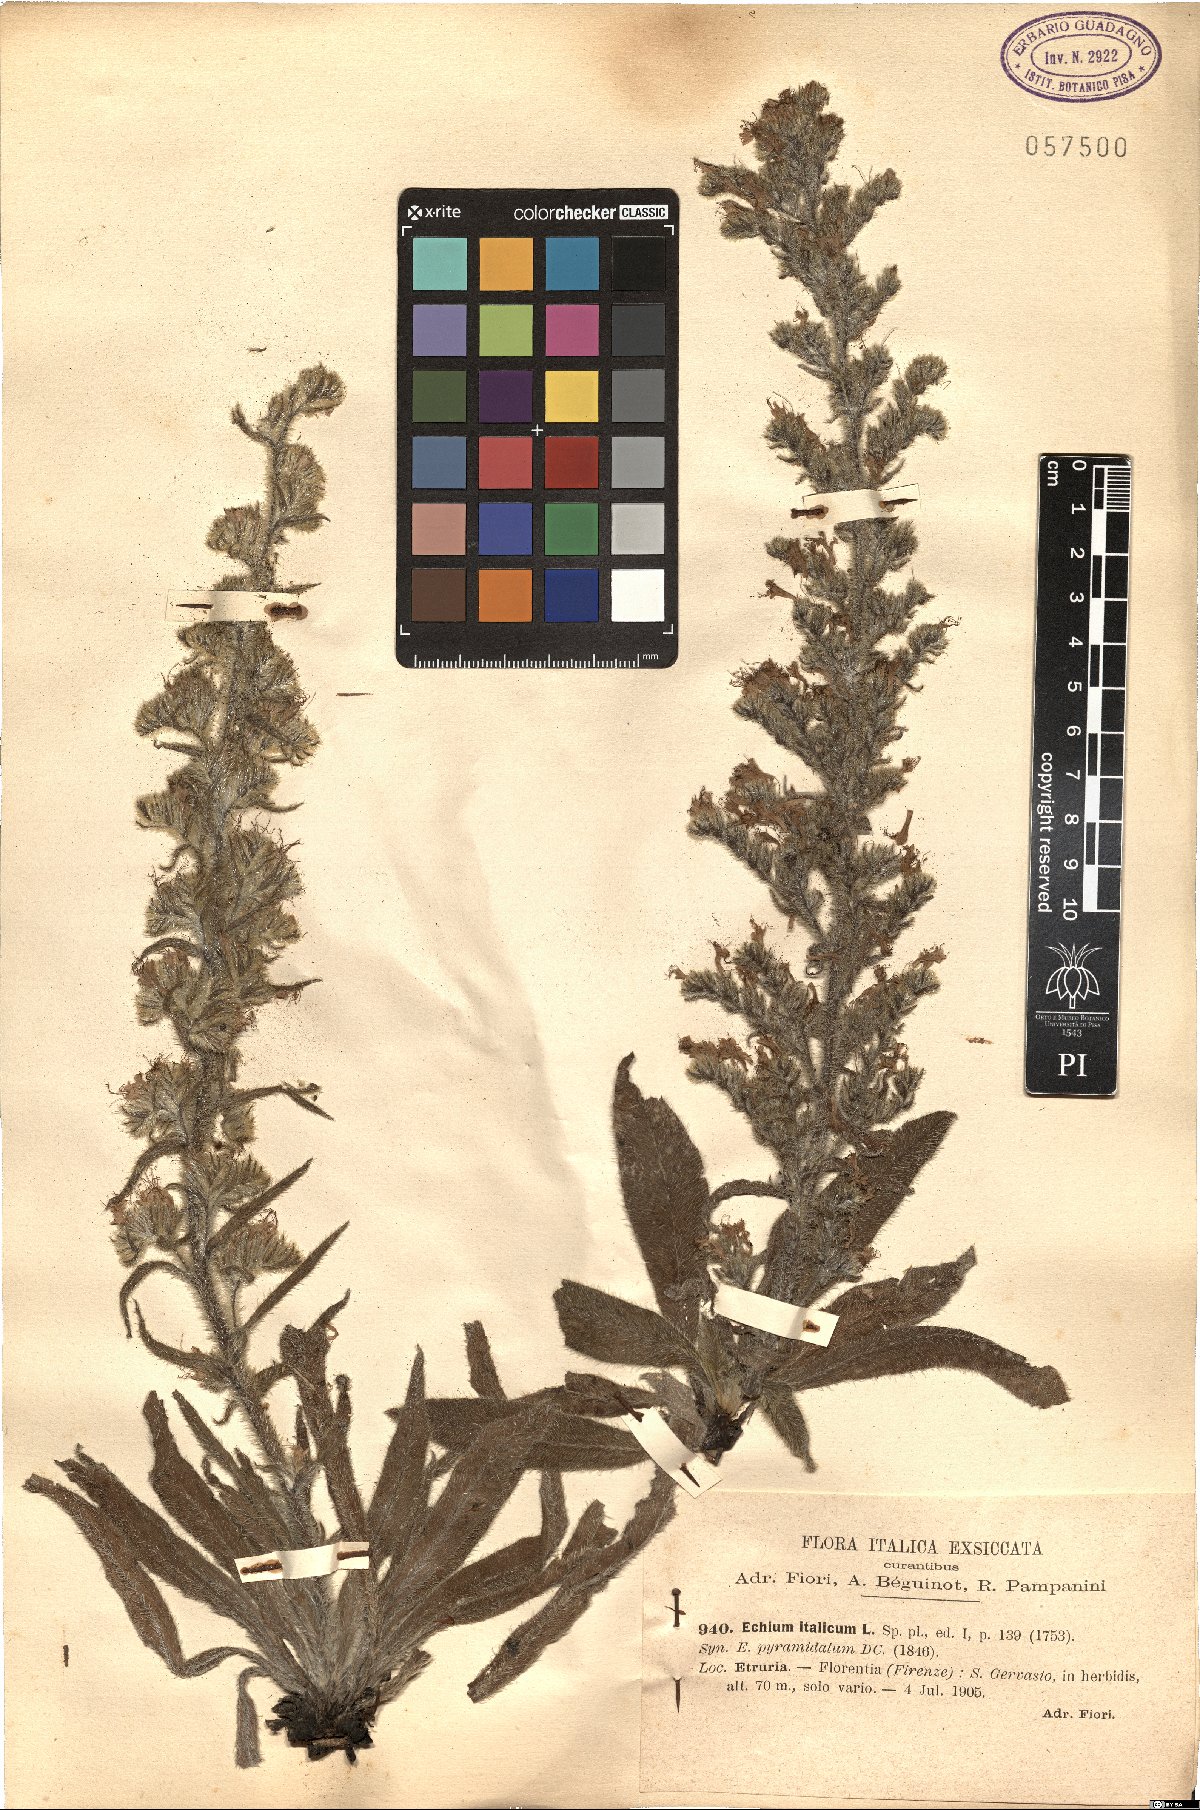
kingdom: Plantae
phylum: Tracheophyta
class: Magnoliopsida
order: Boraginales
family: Boraginaceae
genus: Echium
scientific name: Echium italicum
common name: Italian viper's bugloss
